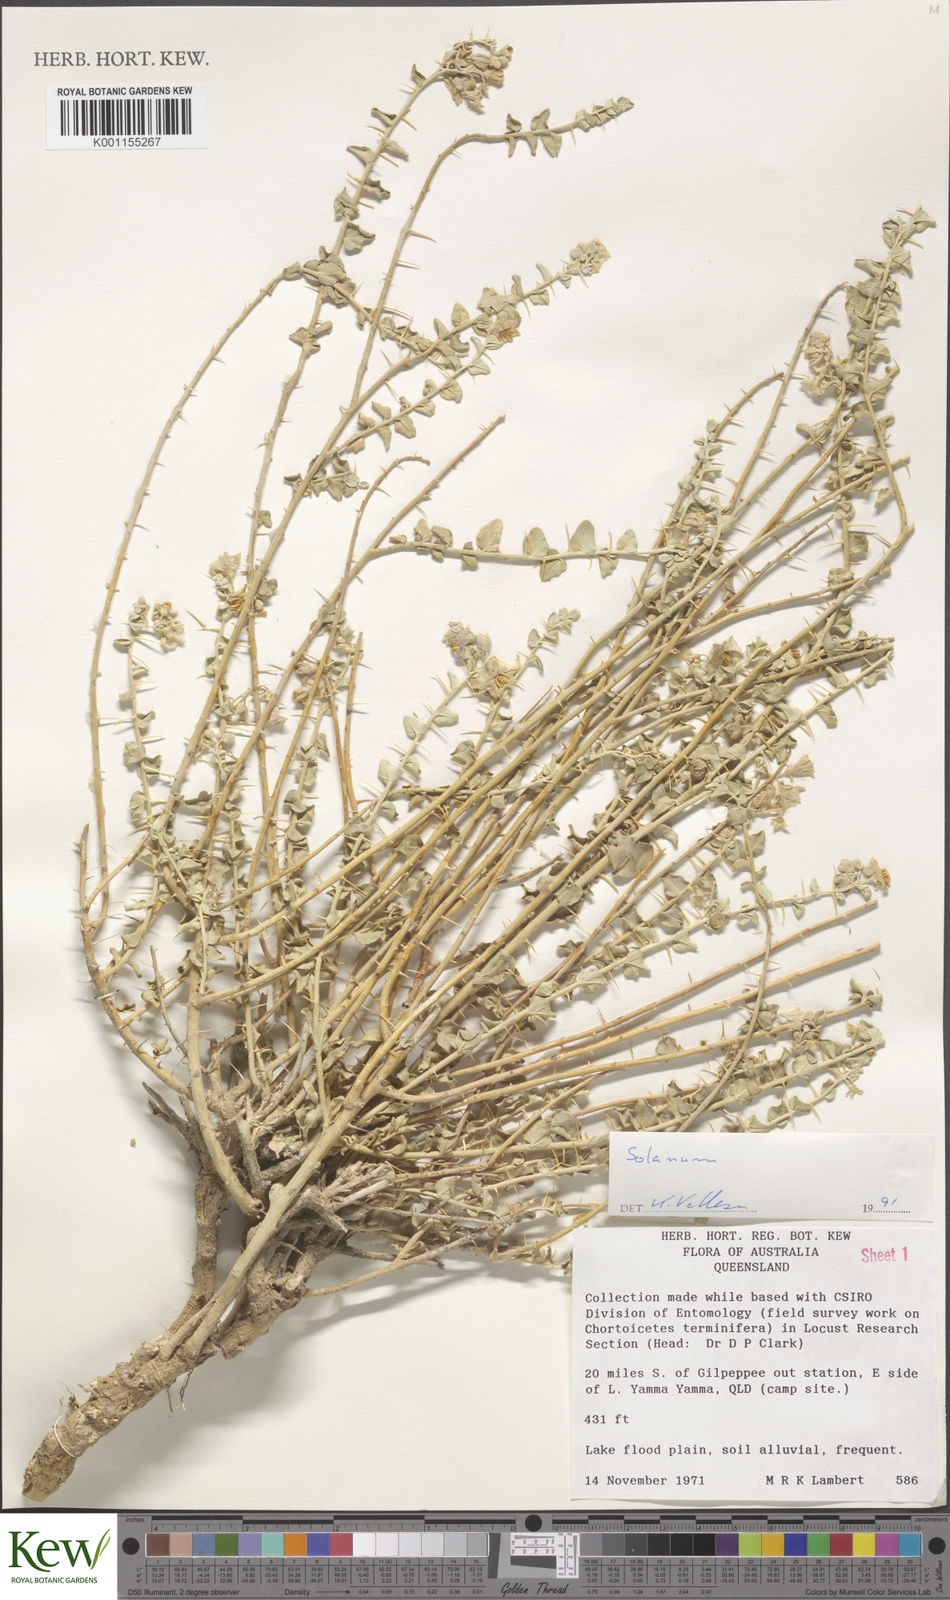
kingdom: Plantae
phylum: Tracheophyta
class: Magnoliopsida
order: Solanales
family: Solanaceae
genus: Solanum
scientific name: Solanum
